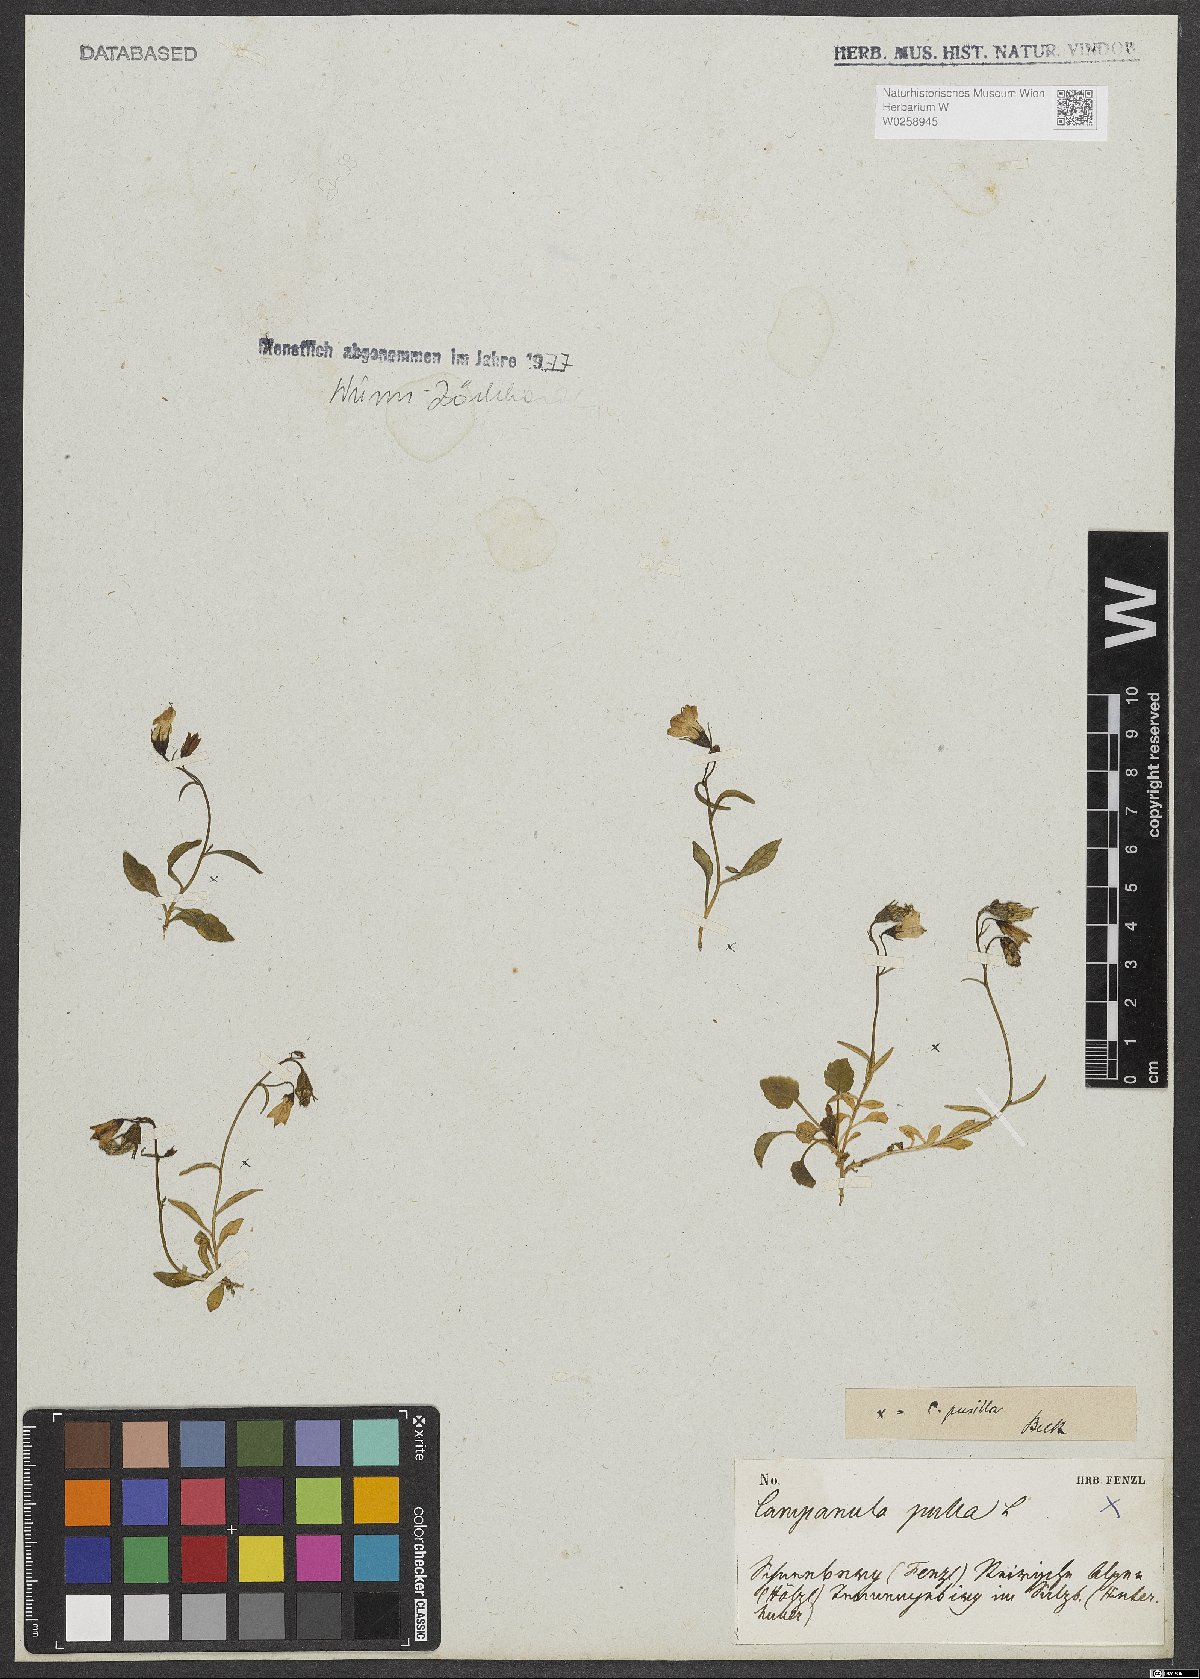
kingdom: Plantae
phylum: Tracheophyta
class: Magnoliopsida
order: Asterales
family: Campanulaceae
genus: Campanula
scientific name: Campanula cochleariifolia
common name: Fairies'-thimbles
